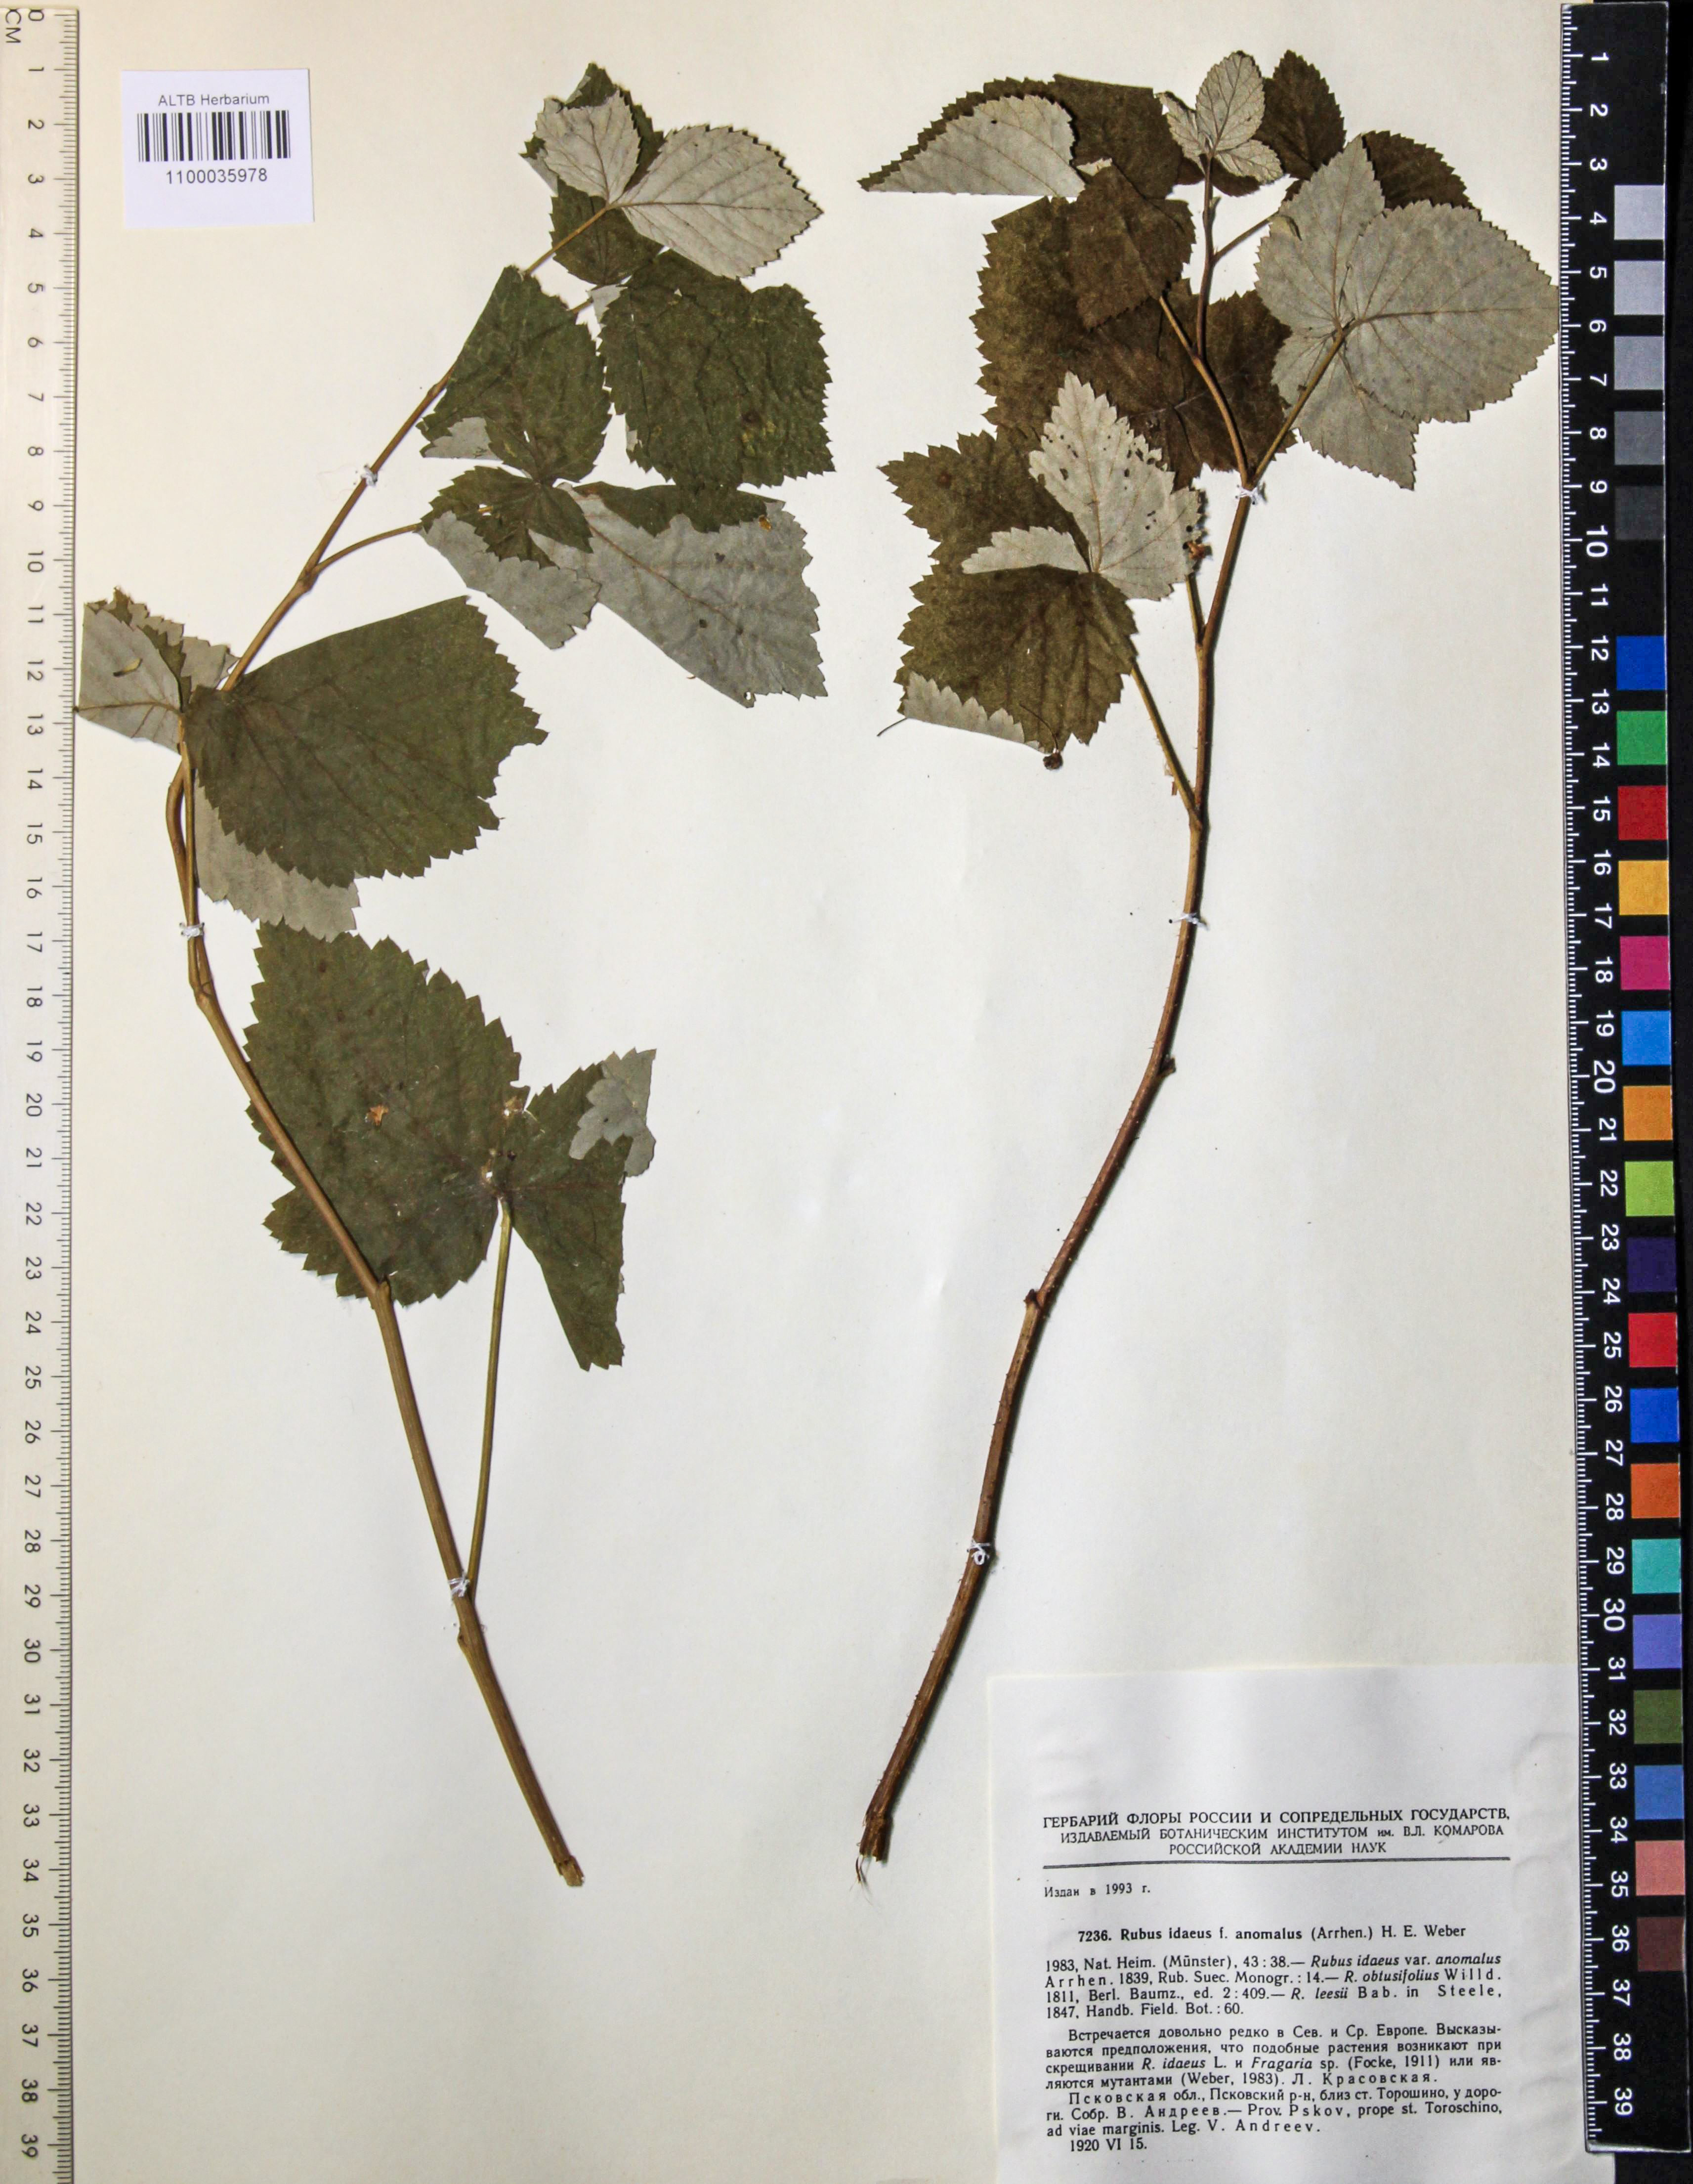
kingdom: Plantae
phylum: Tracheophyta
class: Magnoliopsida
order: Rosales
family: Rosaceae
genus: Rubus
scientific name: Rubus idaeus
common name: Raspberry
